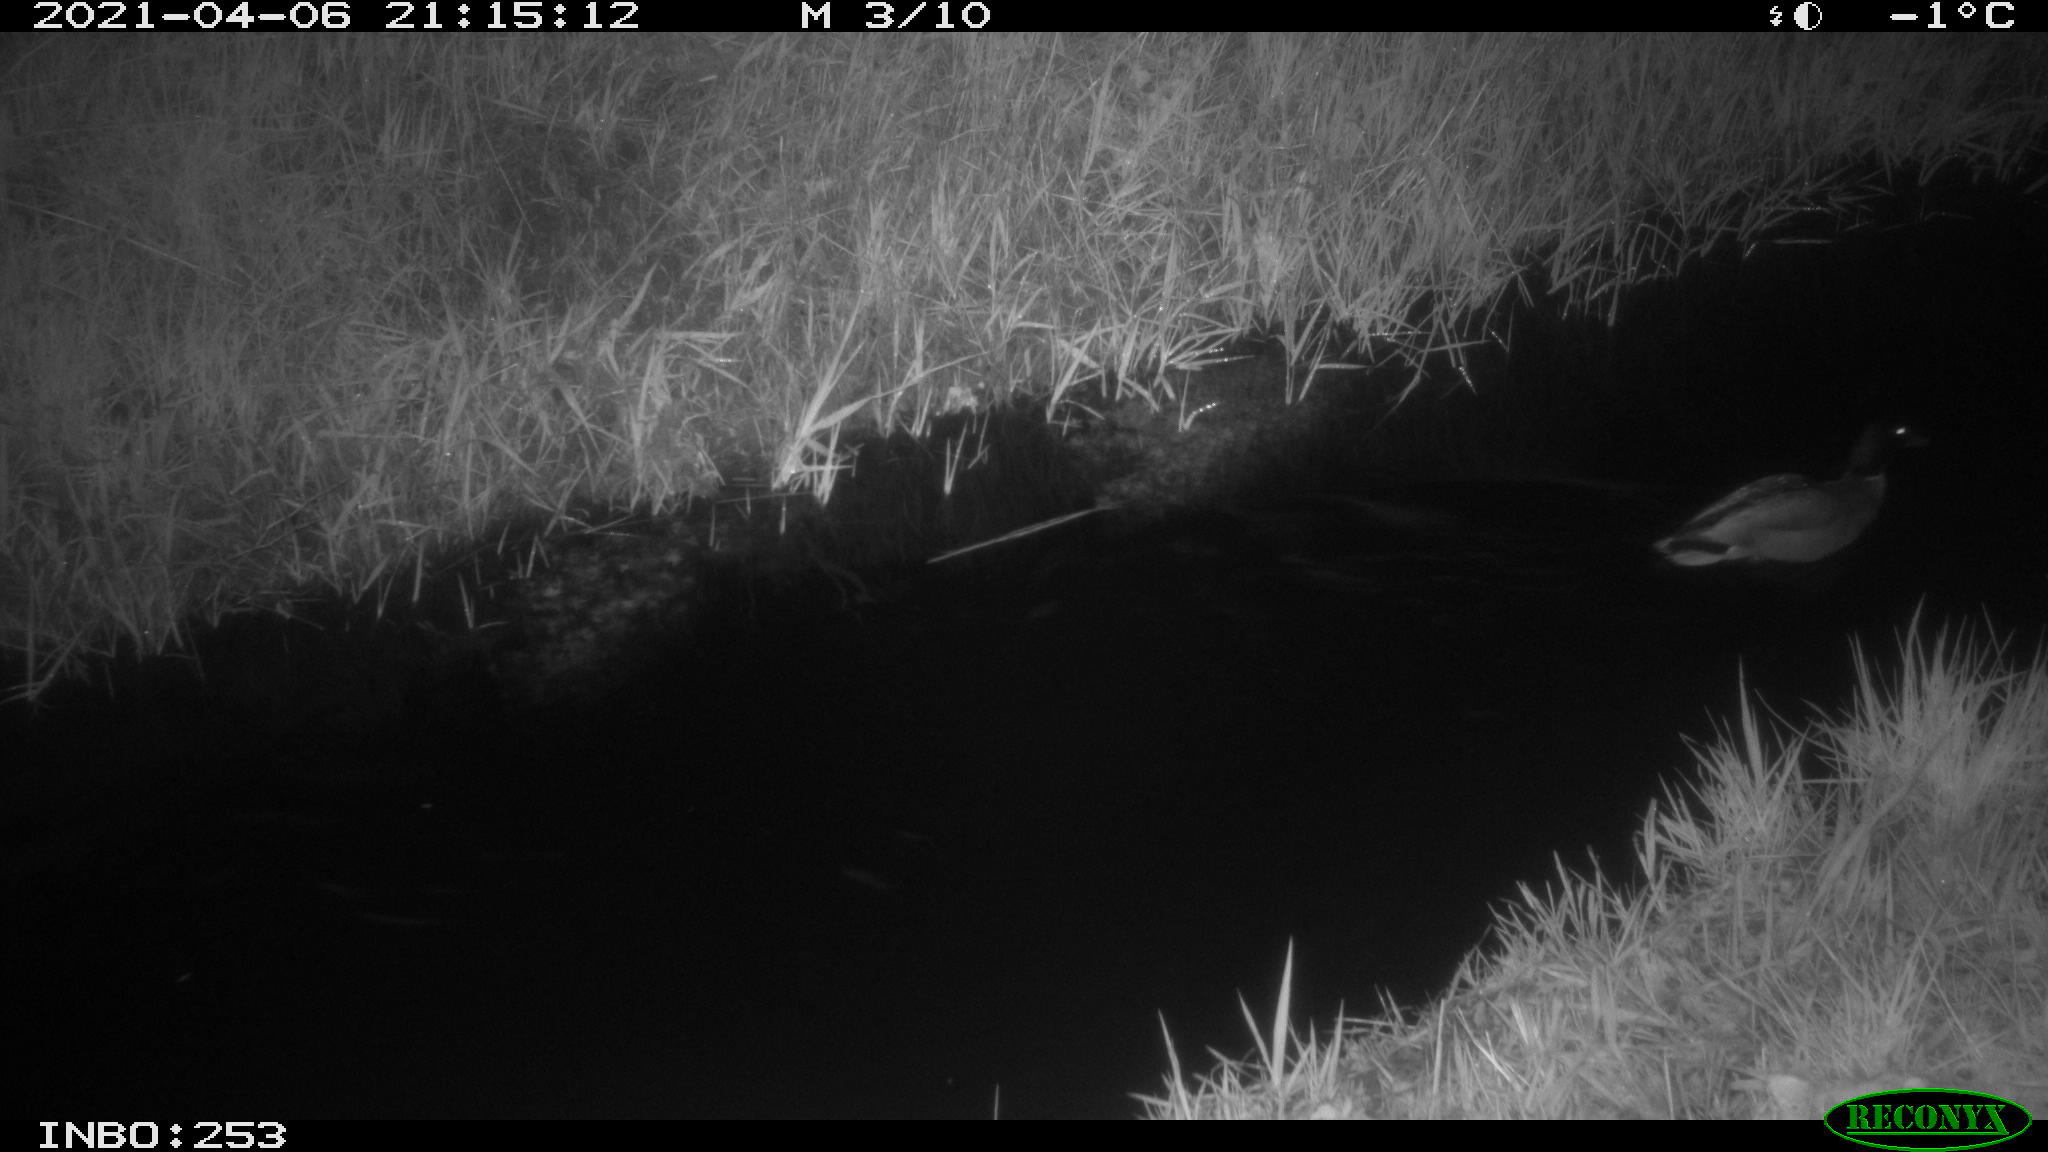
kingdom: Animalia
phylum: Chordata
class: Aves
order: Anseriformes
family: Anatidae
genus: Anas
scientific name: Anas platyrhynchos
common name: Mallard
